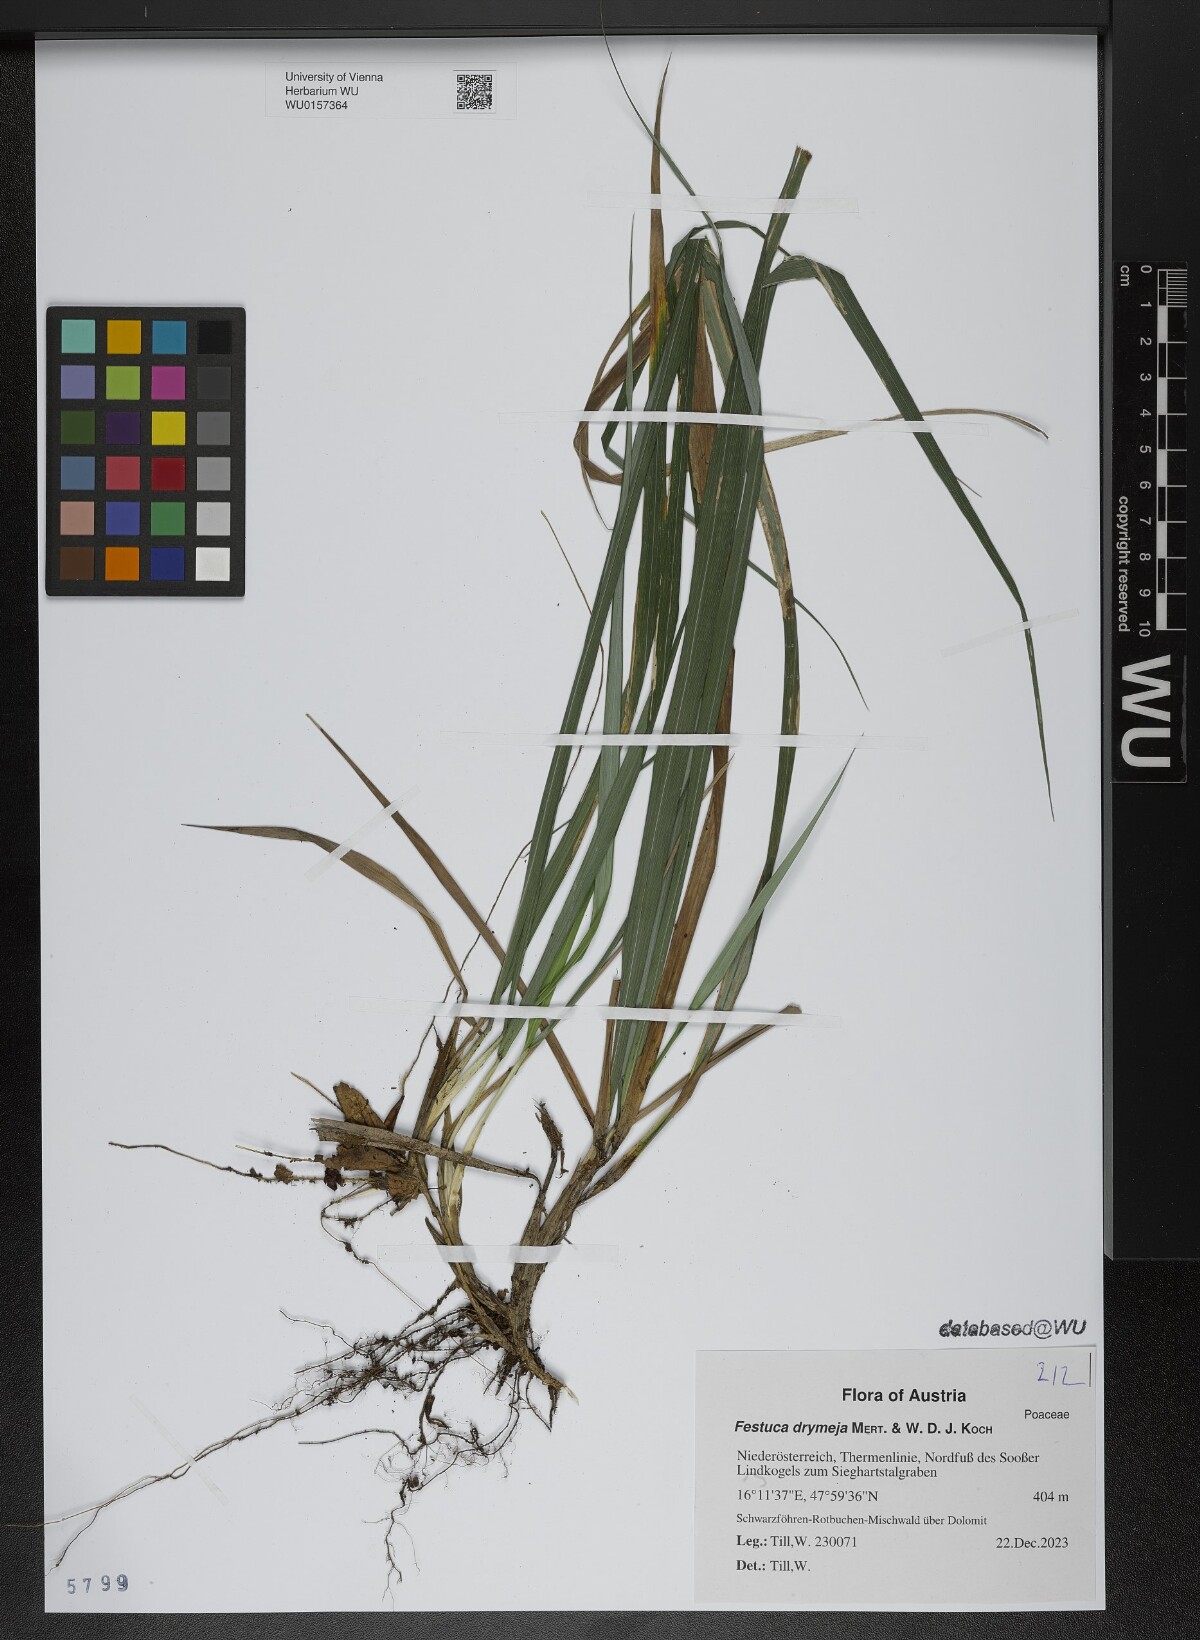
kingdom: Plantae
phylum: Tracheophyta
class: Liliopsida
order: Poales
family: Poaceae
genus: Festuca
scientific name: Festuca drymeja
